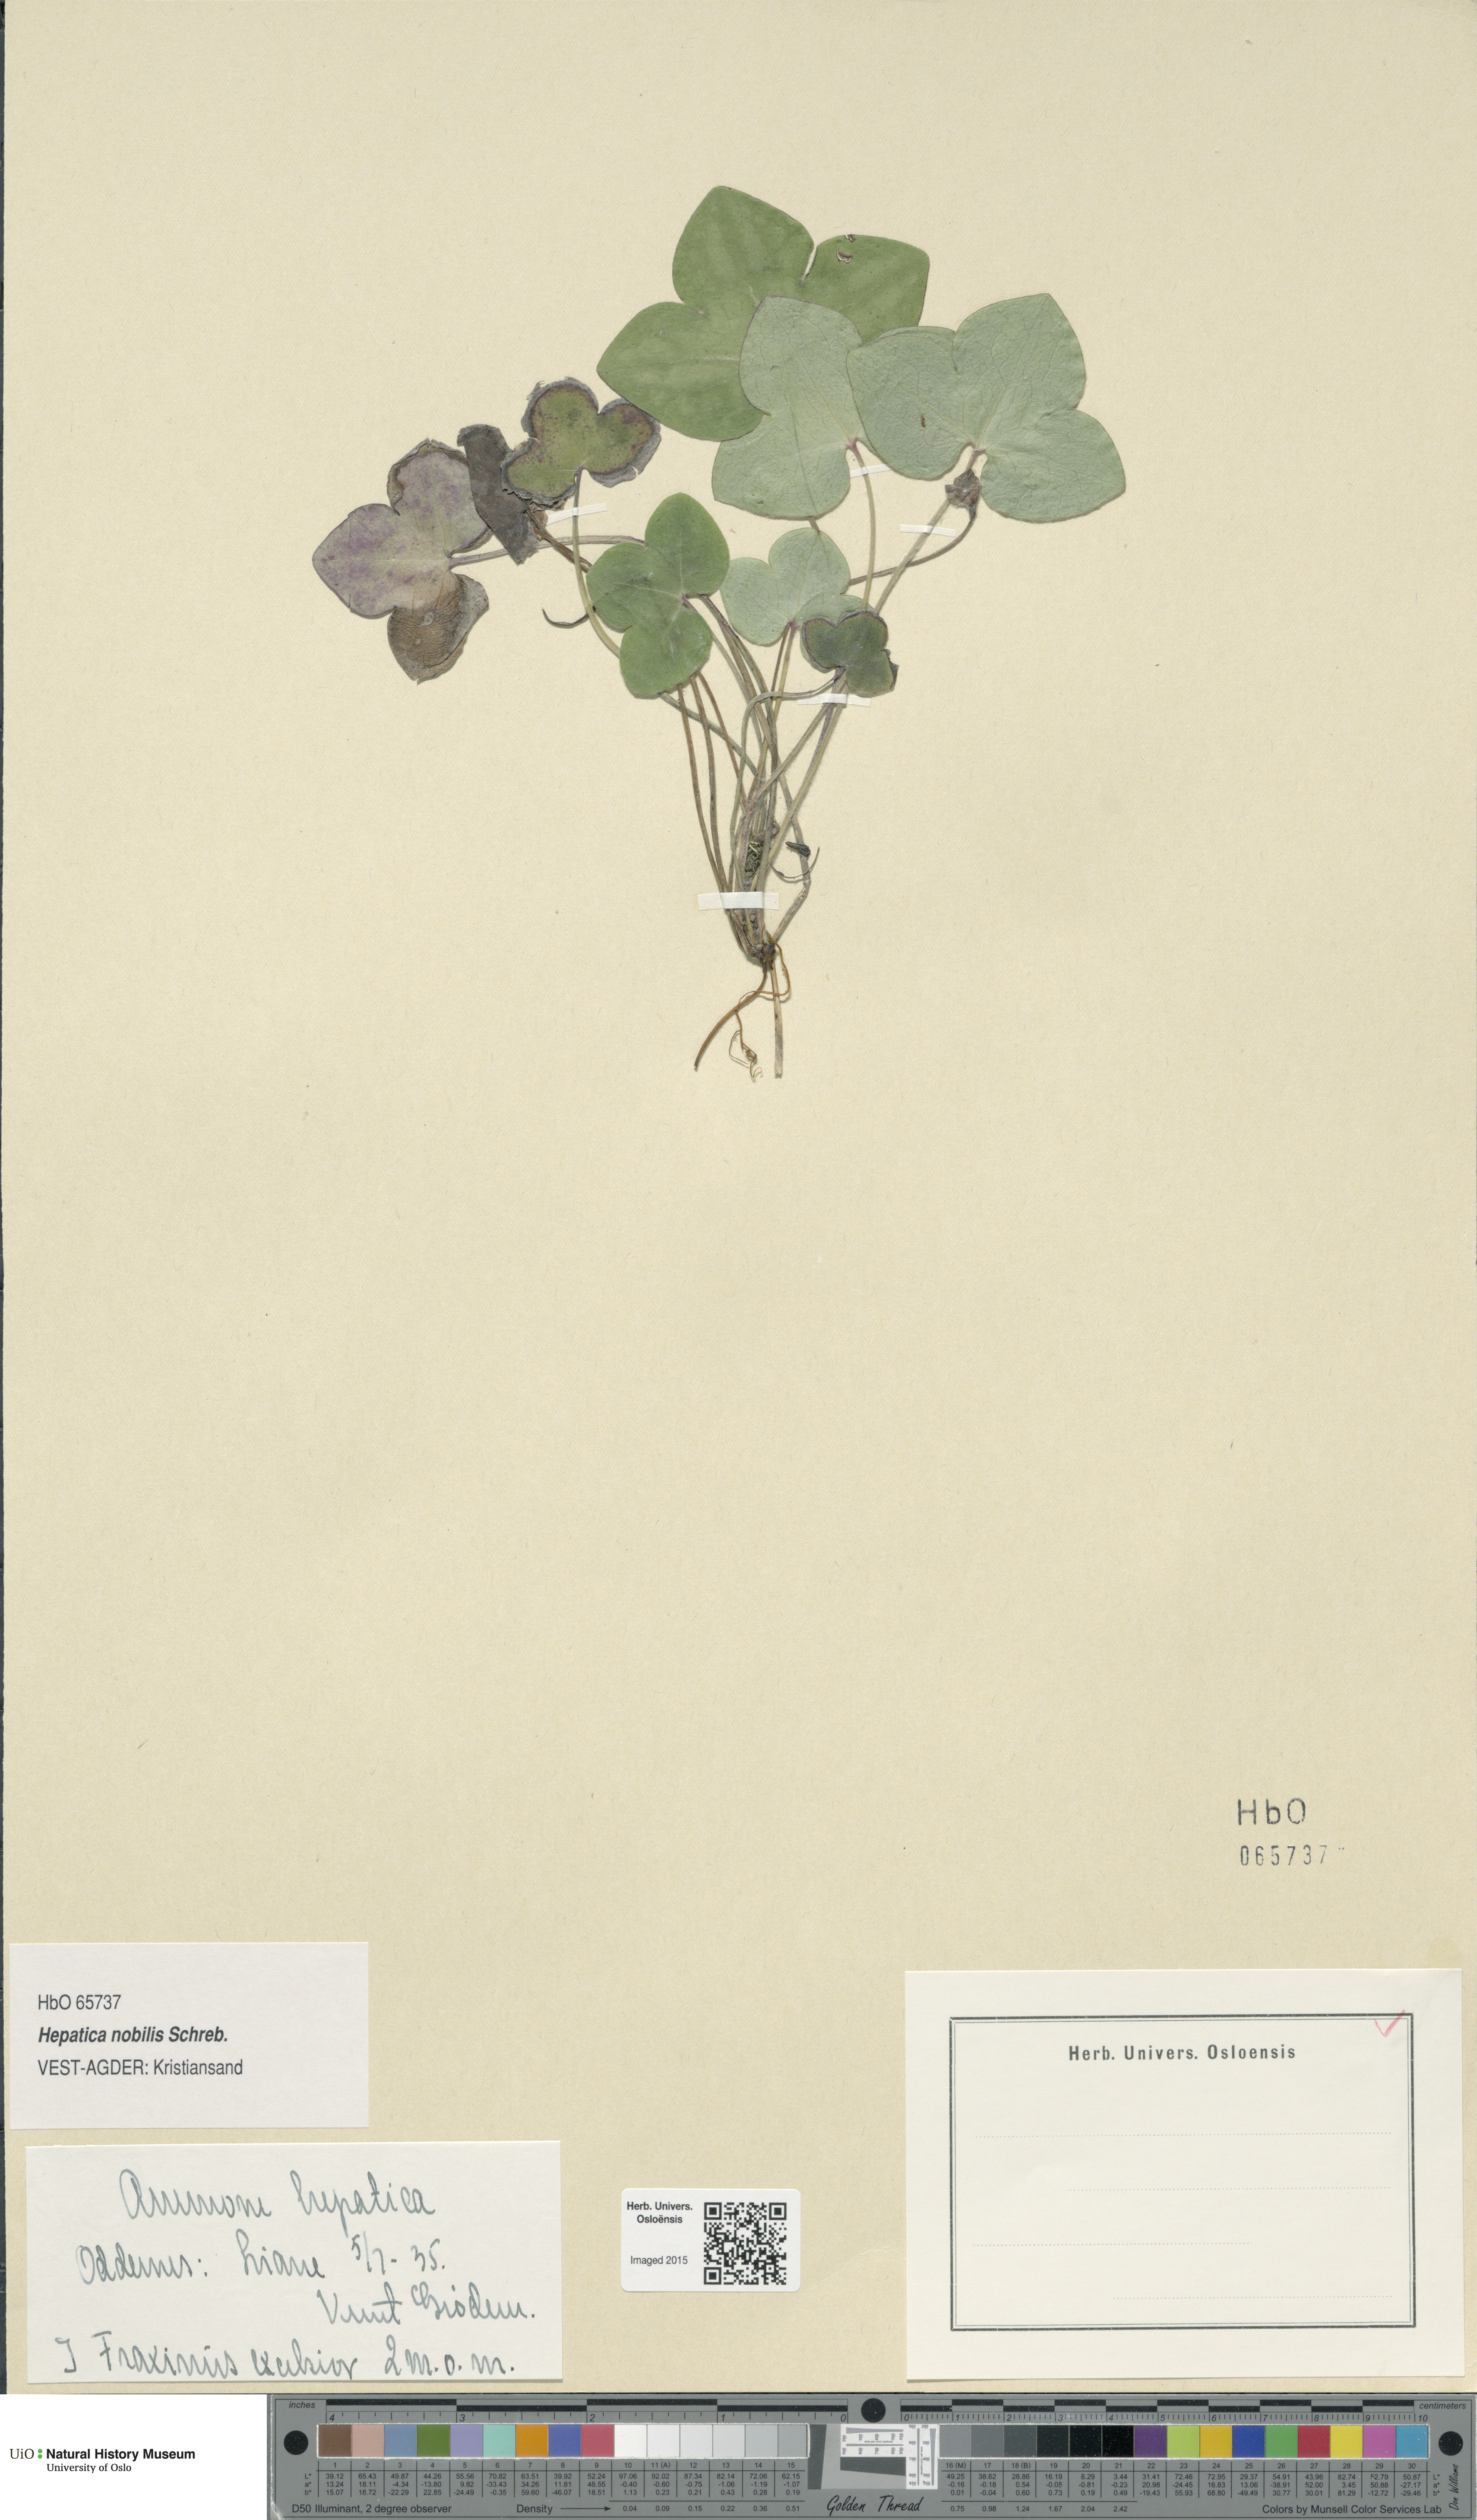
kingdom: Plantae
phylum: Tracheophyta
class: Magnoliopsida
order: Ranunculales
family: Ranunculaceae
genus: Hepatica
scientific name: Hepatica nobilis
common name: Liverleaf
